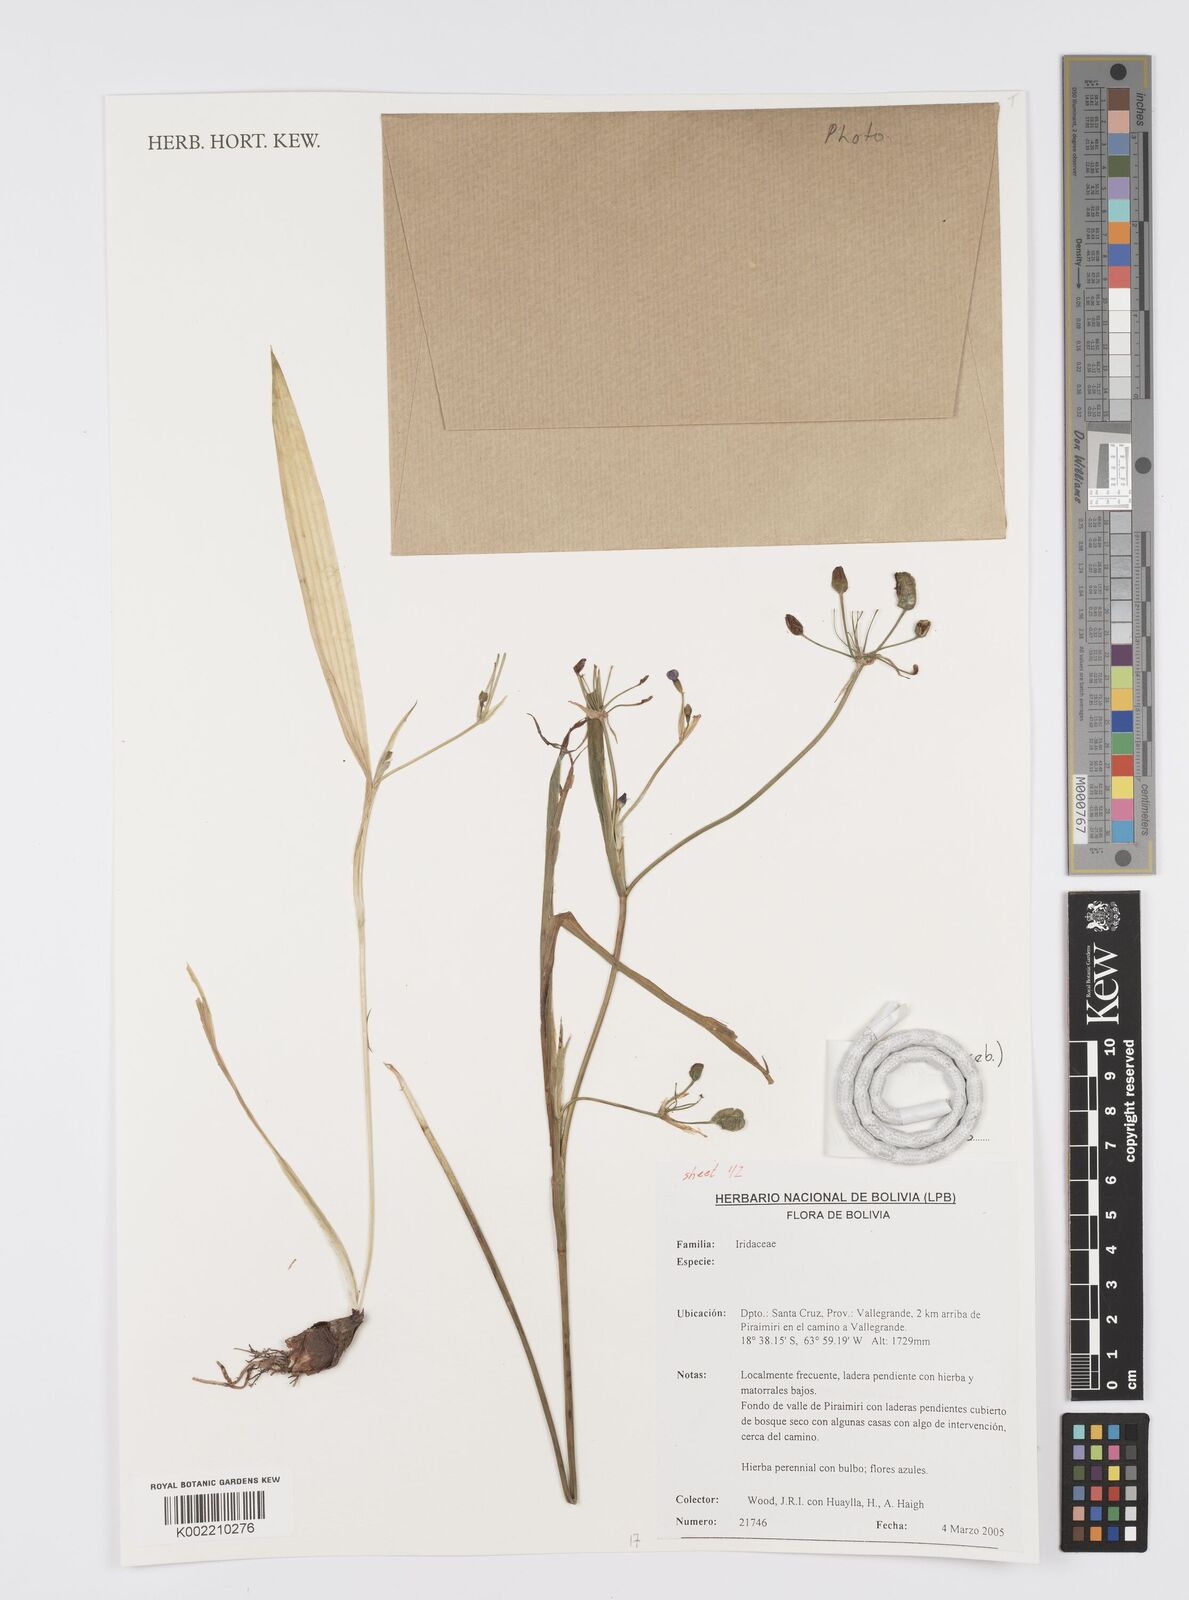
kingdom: Plantae
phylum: Tracheophyta
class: Liliopsida
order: Asparagales
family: Iridaceae
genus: Ennealophus
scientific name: Ennealophus euryandrus
